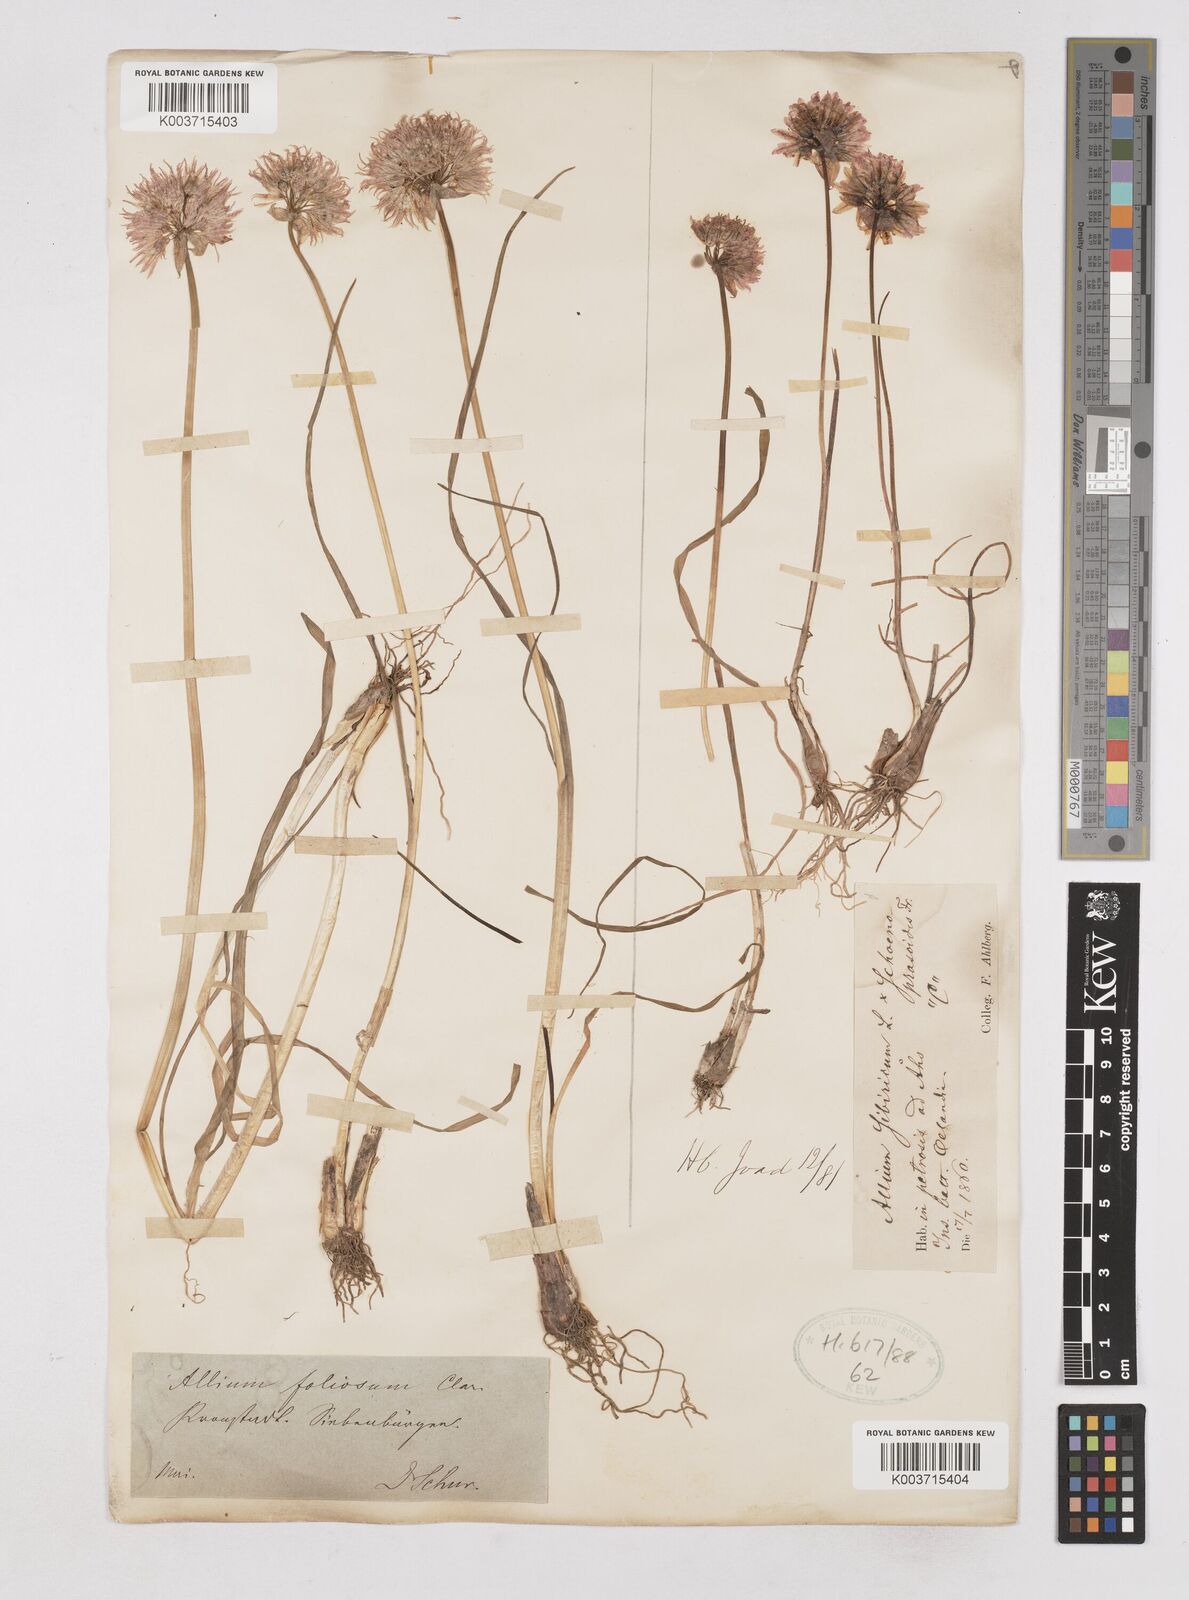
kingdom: Plantae
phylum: Tracheophyta
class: Liliopsida
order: Asparagales
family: Amaryllidaceae
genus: Allium
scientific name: Allium schoenoprasum
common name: Chives
